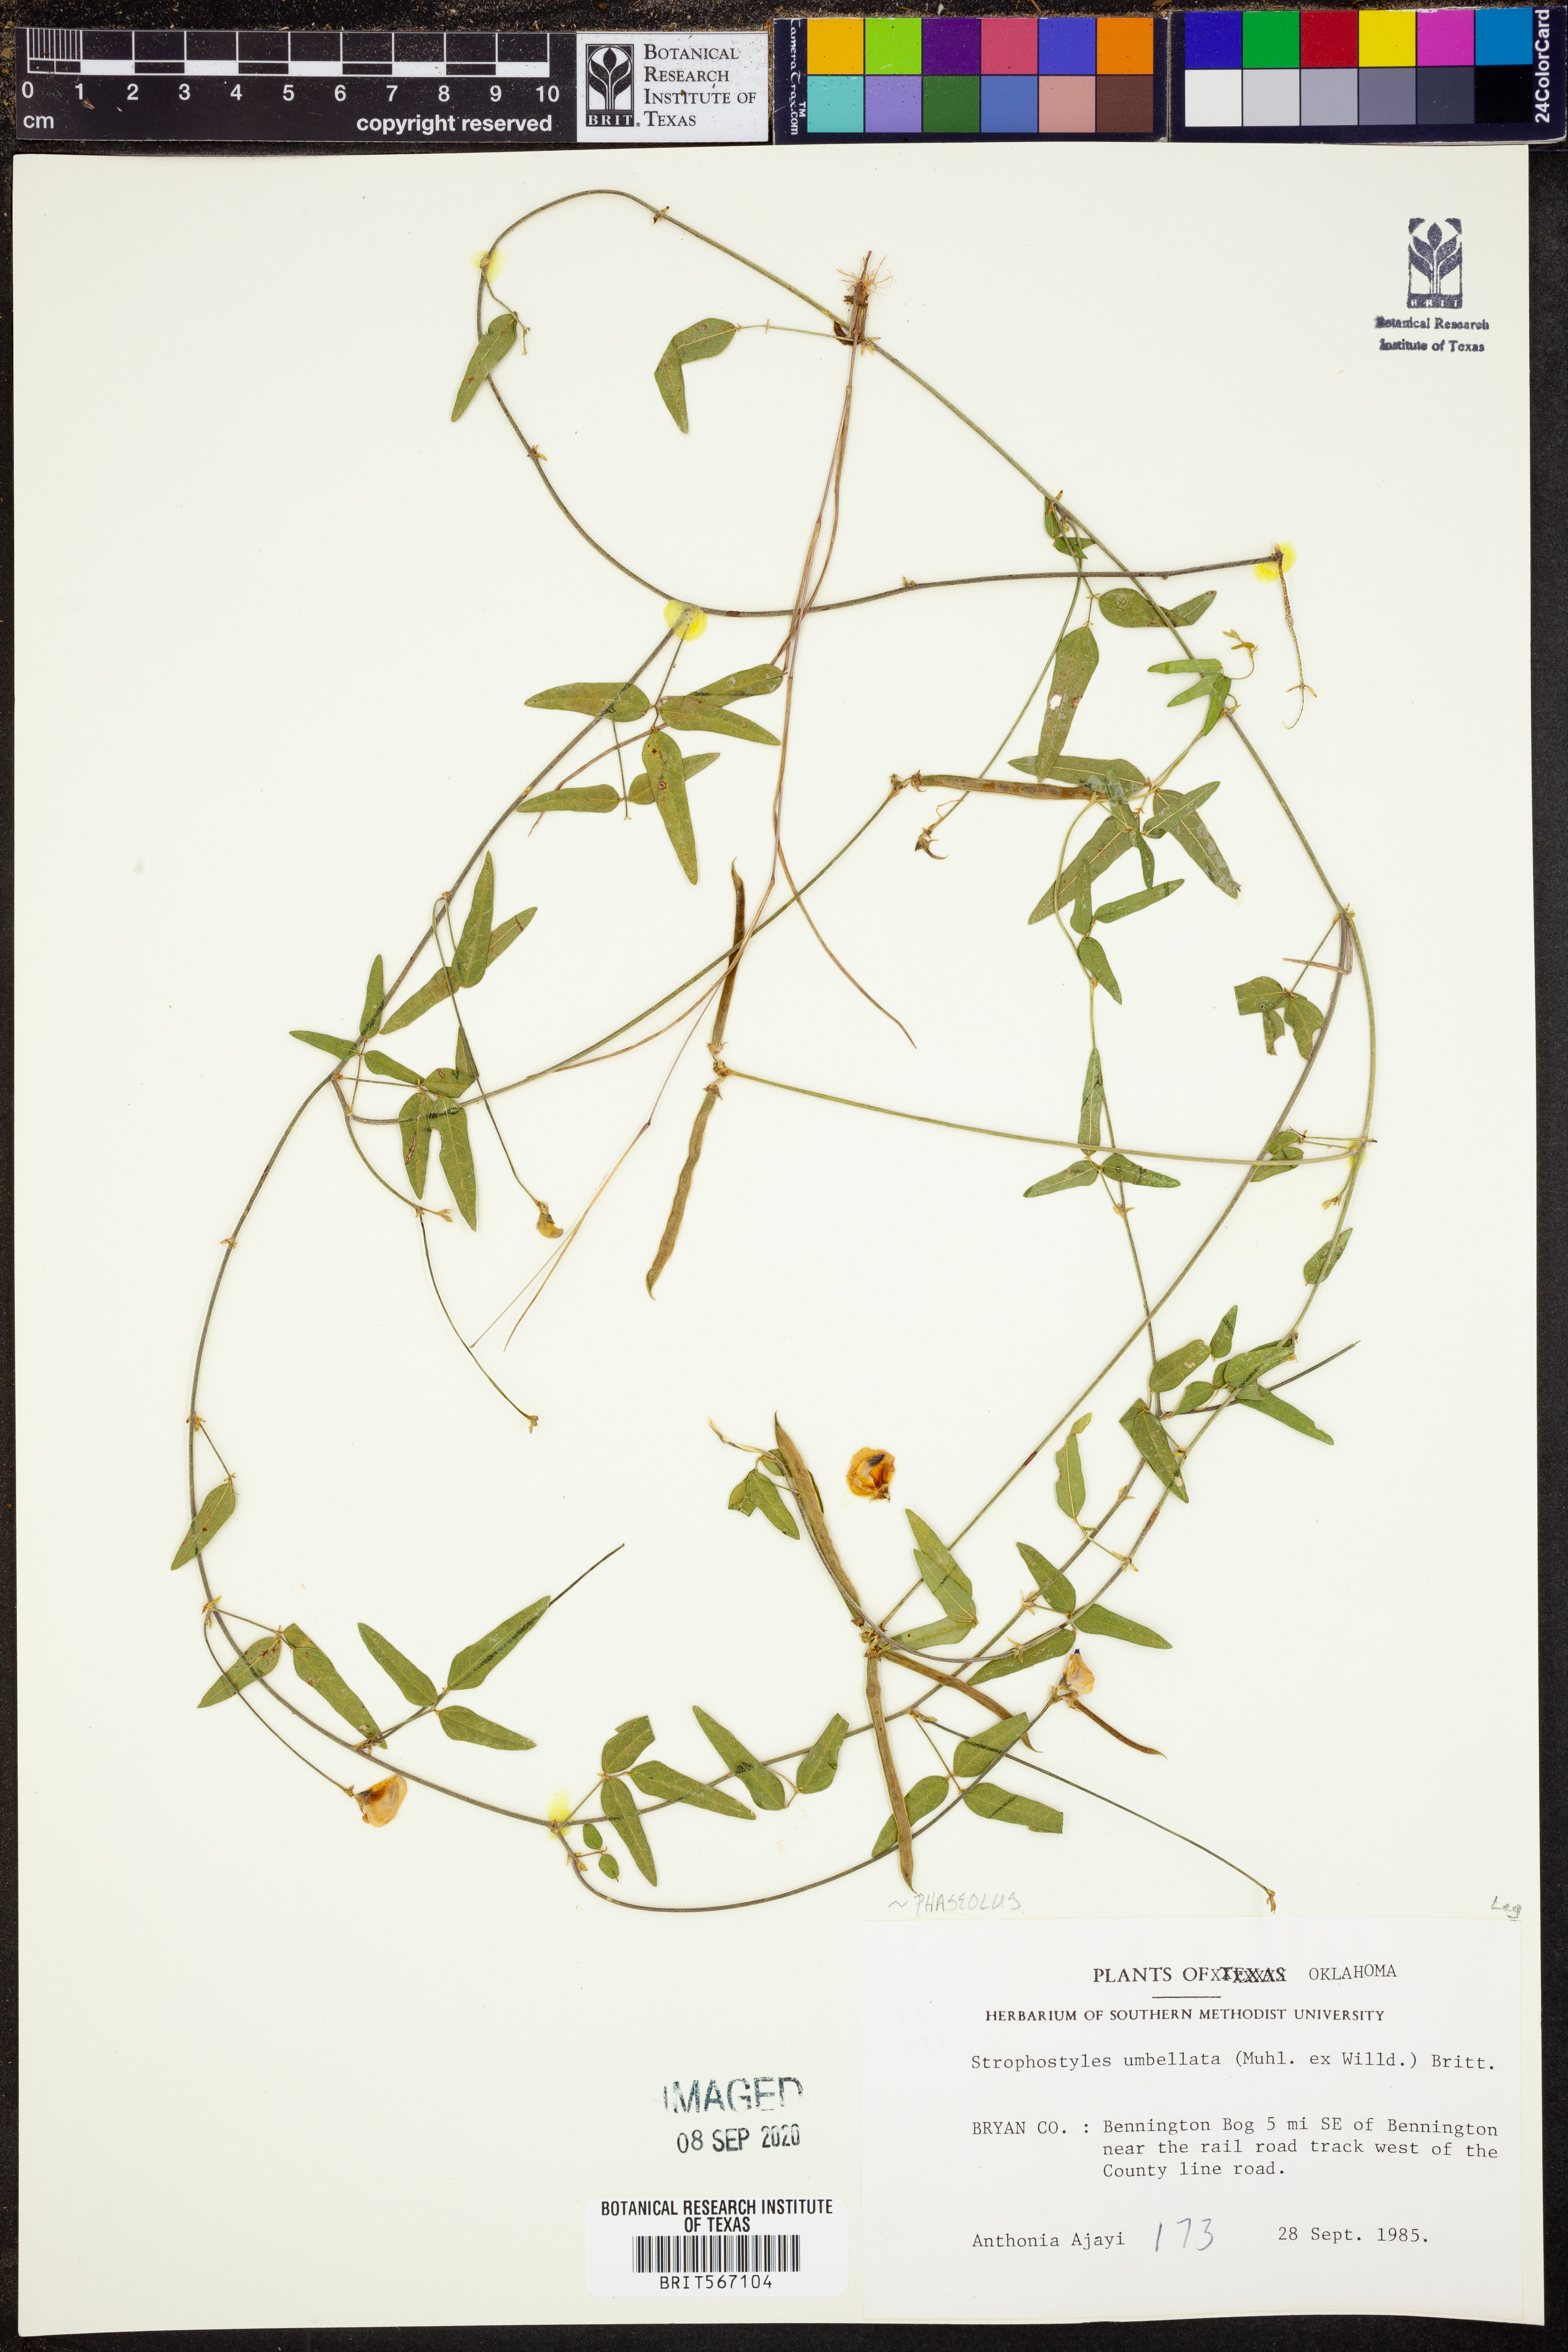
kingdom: Plantae
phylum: Tracheophyta
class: Magnoliopsida
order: Fabales
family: Fabaceae
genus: Strophostyles
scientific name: Strophostyles umbellata
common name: Perennial wild bean
